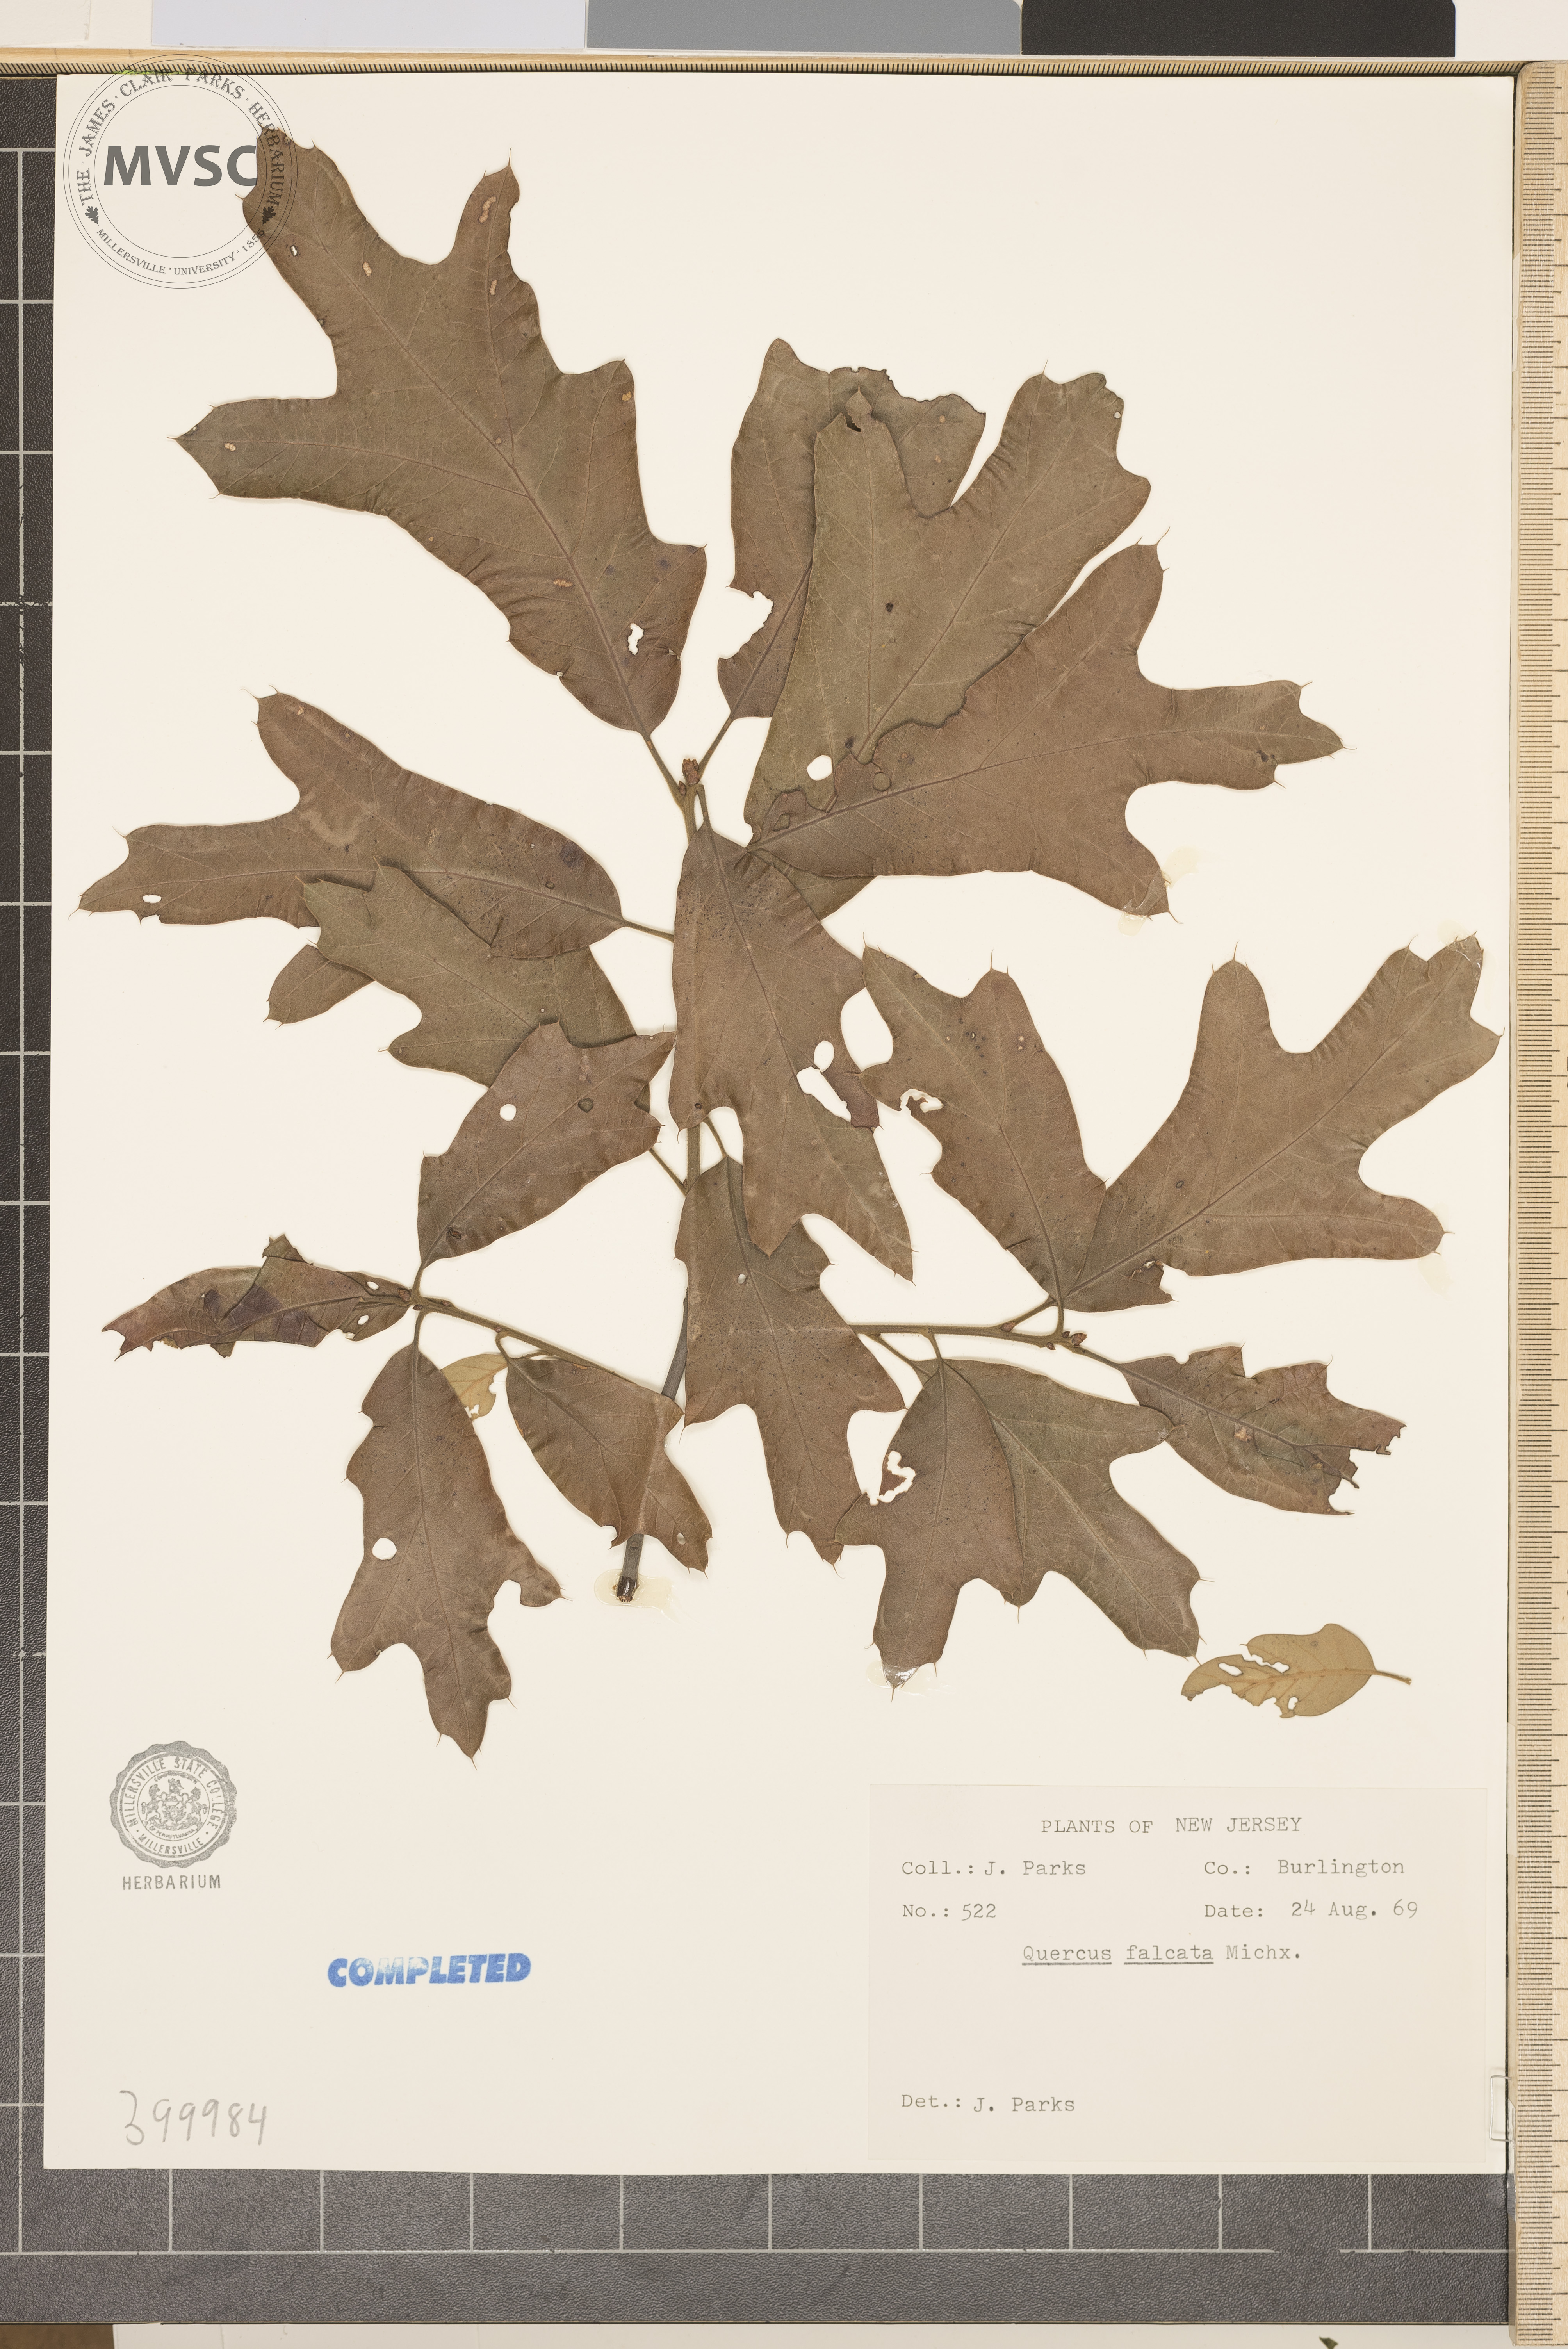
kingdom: Plantae
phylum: Tracheophyta
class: Magnoliopsida
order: Fagales
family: Fagaceae
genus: Quercus
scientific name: Quercus falcata
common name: southern red oak
